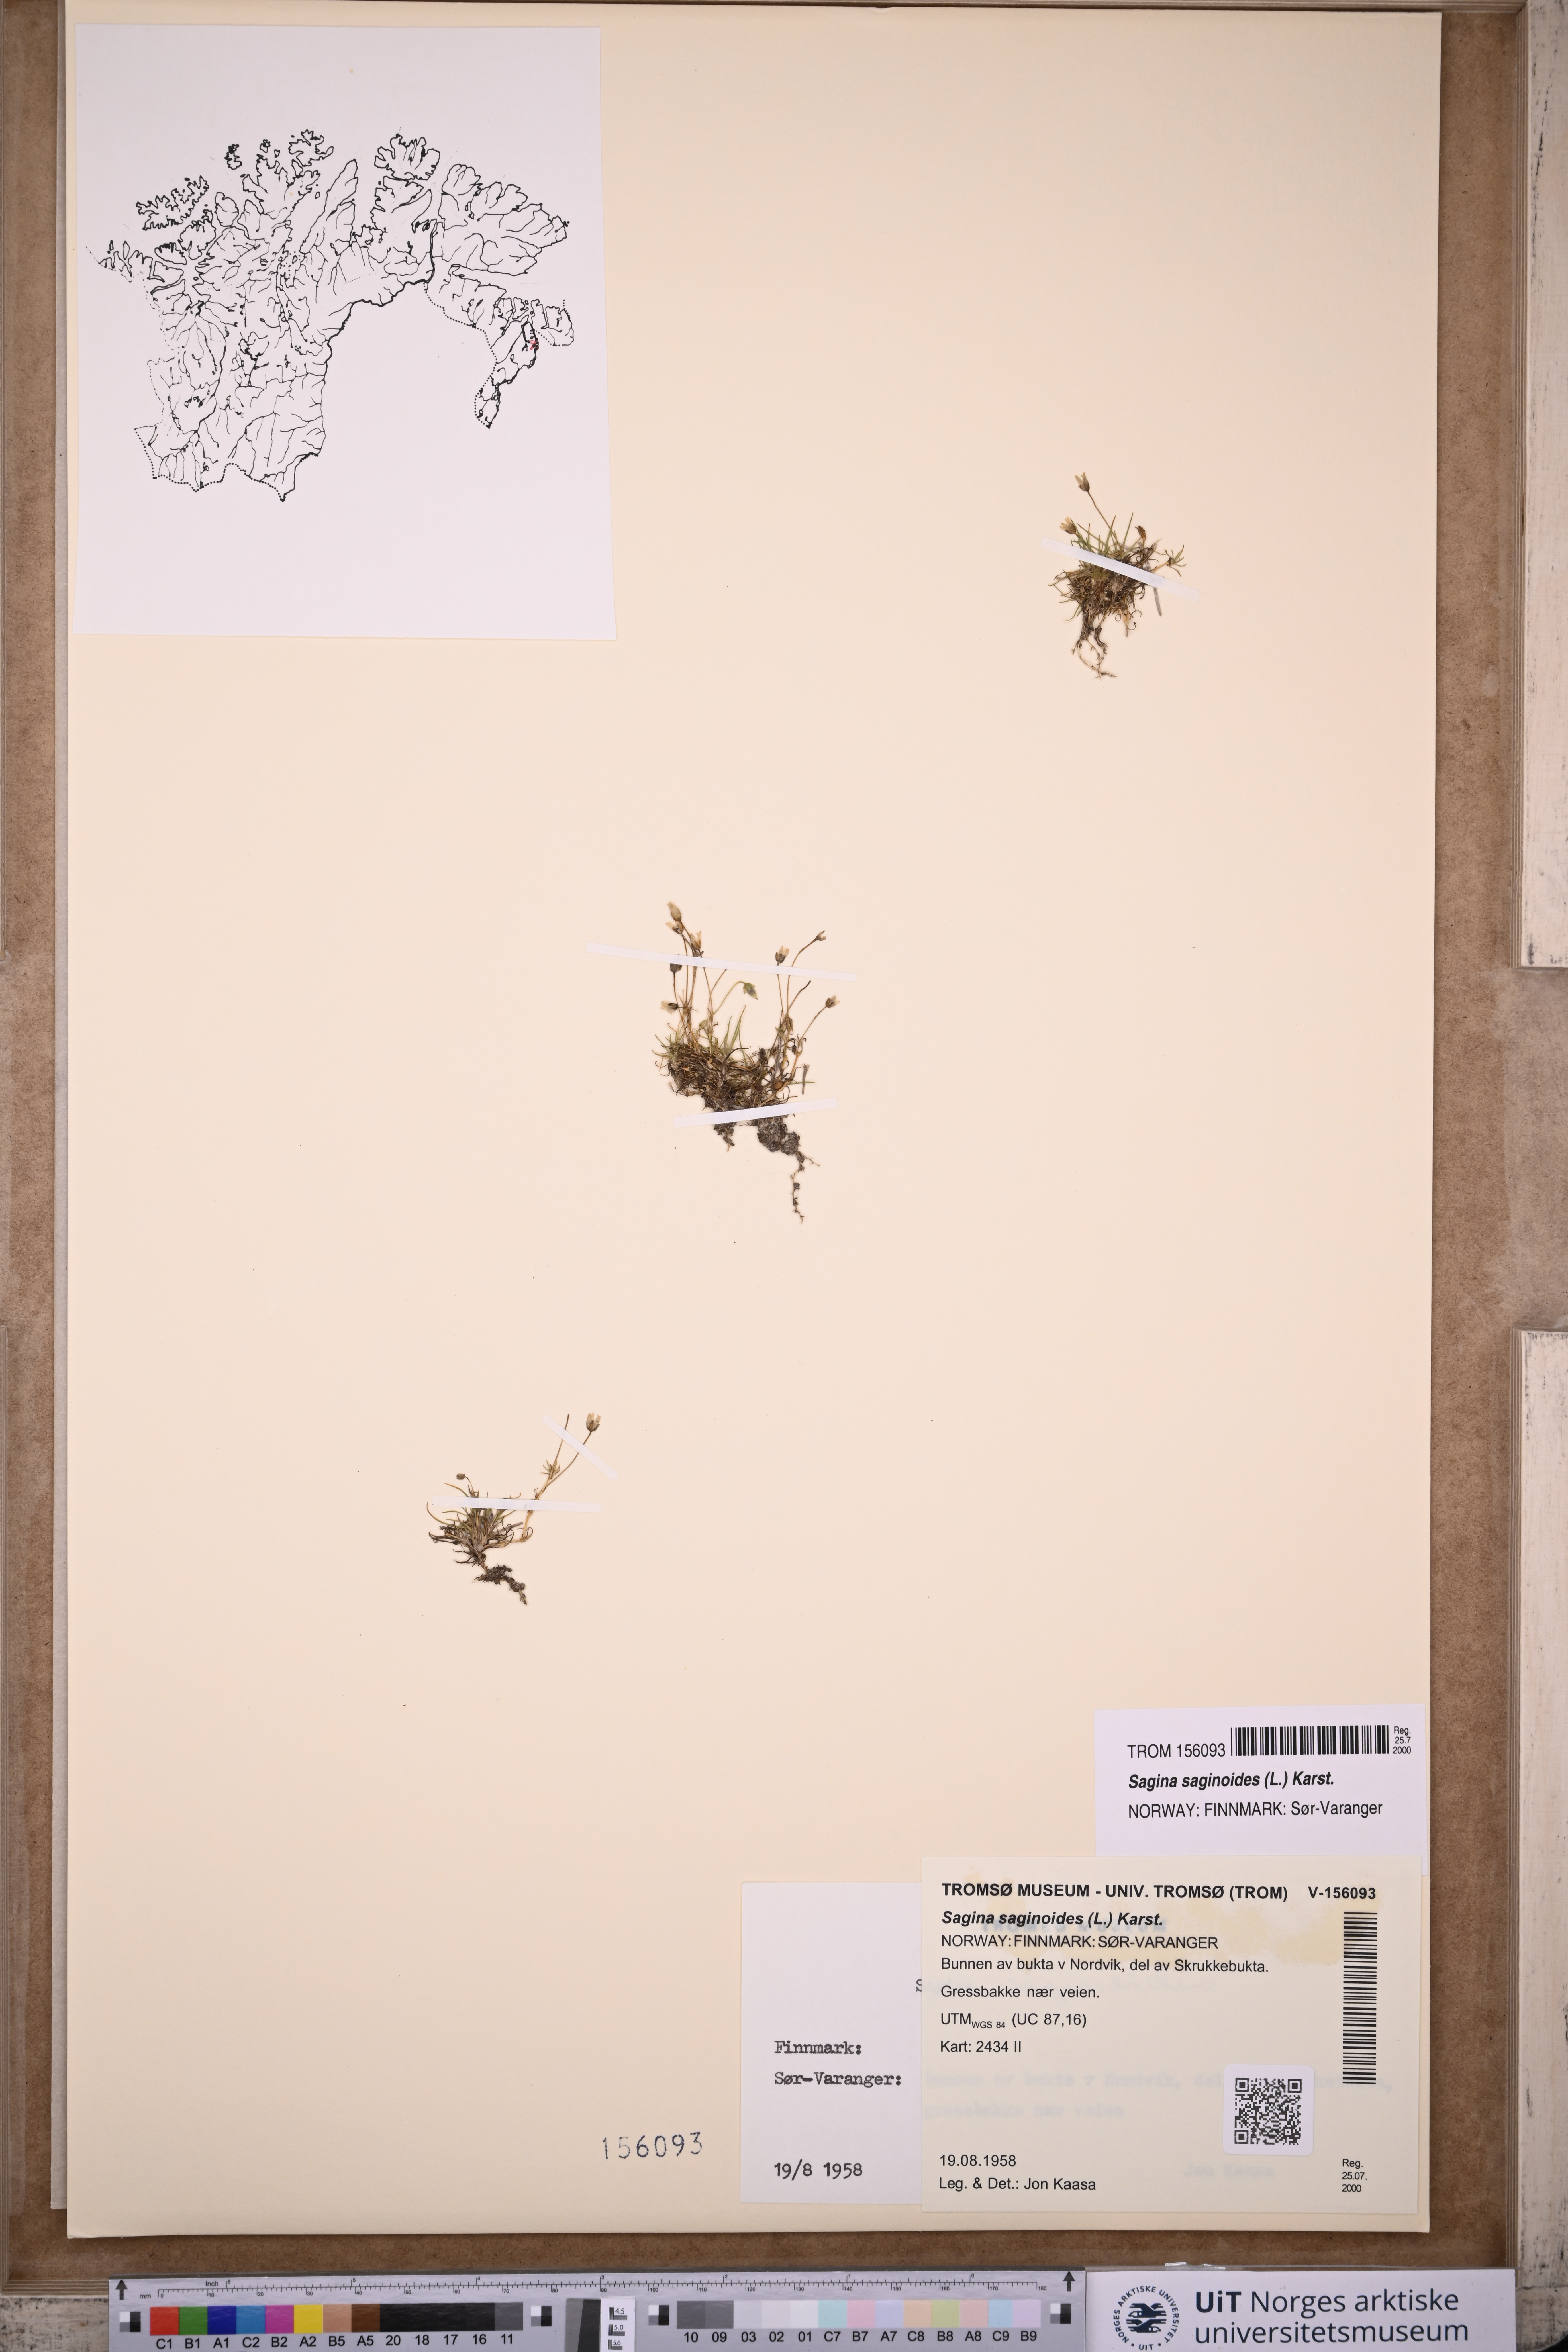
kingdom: Plantae
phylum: Tracheophyta
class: Magnoliopsida
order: Caryophyllales
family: Caryophyllaceae
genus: Sagina
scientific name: Sagina saginoides
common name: Alpine pearlwort
